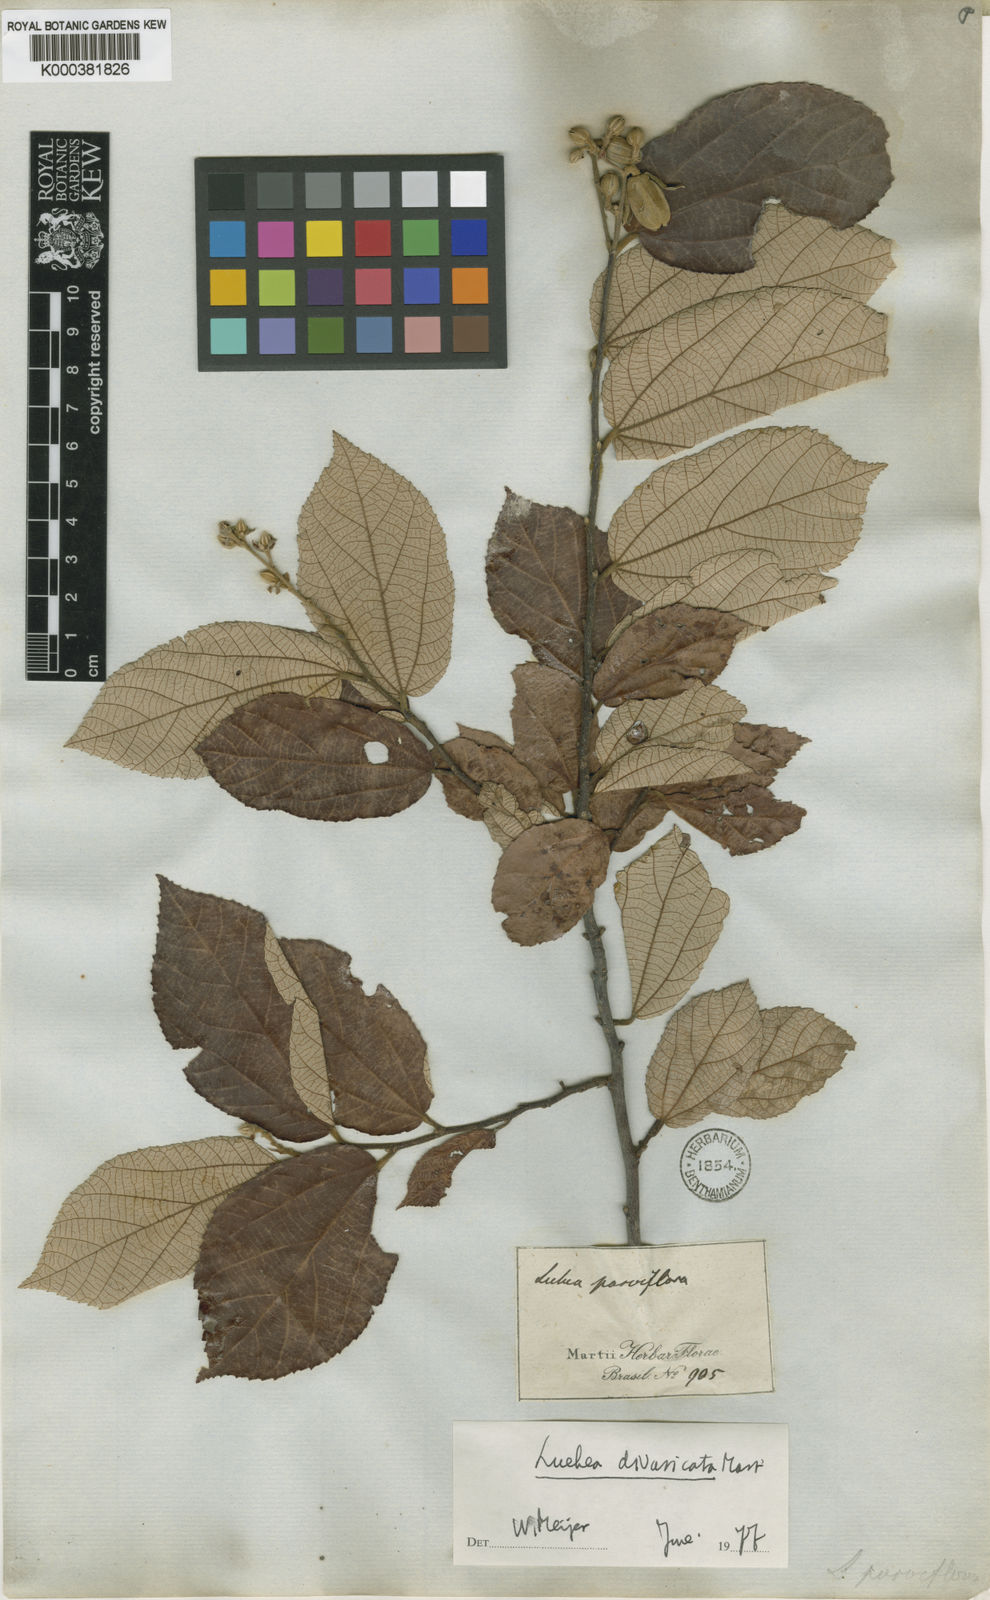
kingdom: Plantae
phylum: Tracheophyta
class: Magnoliopsida
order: Malvales
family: Malvaceae
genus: Luehea
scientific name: Luehea divaricata
